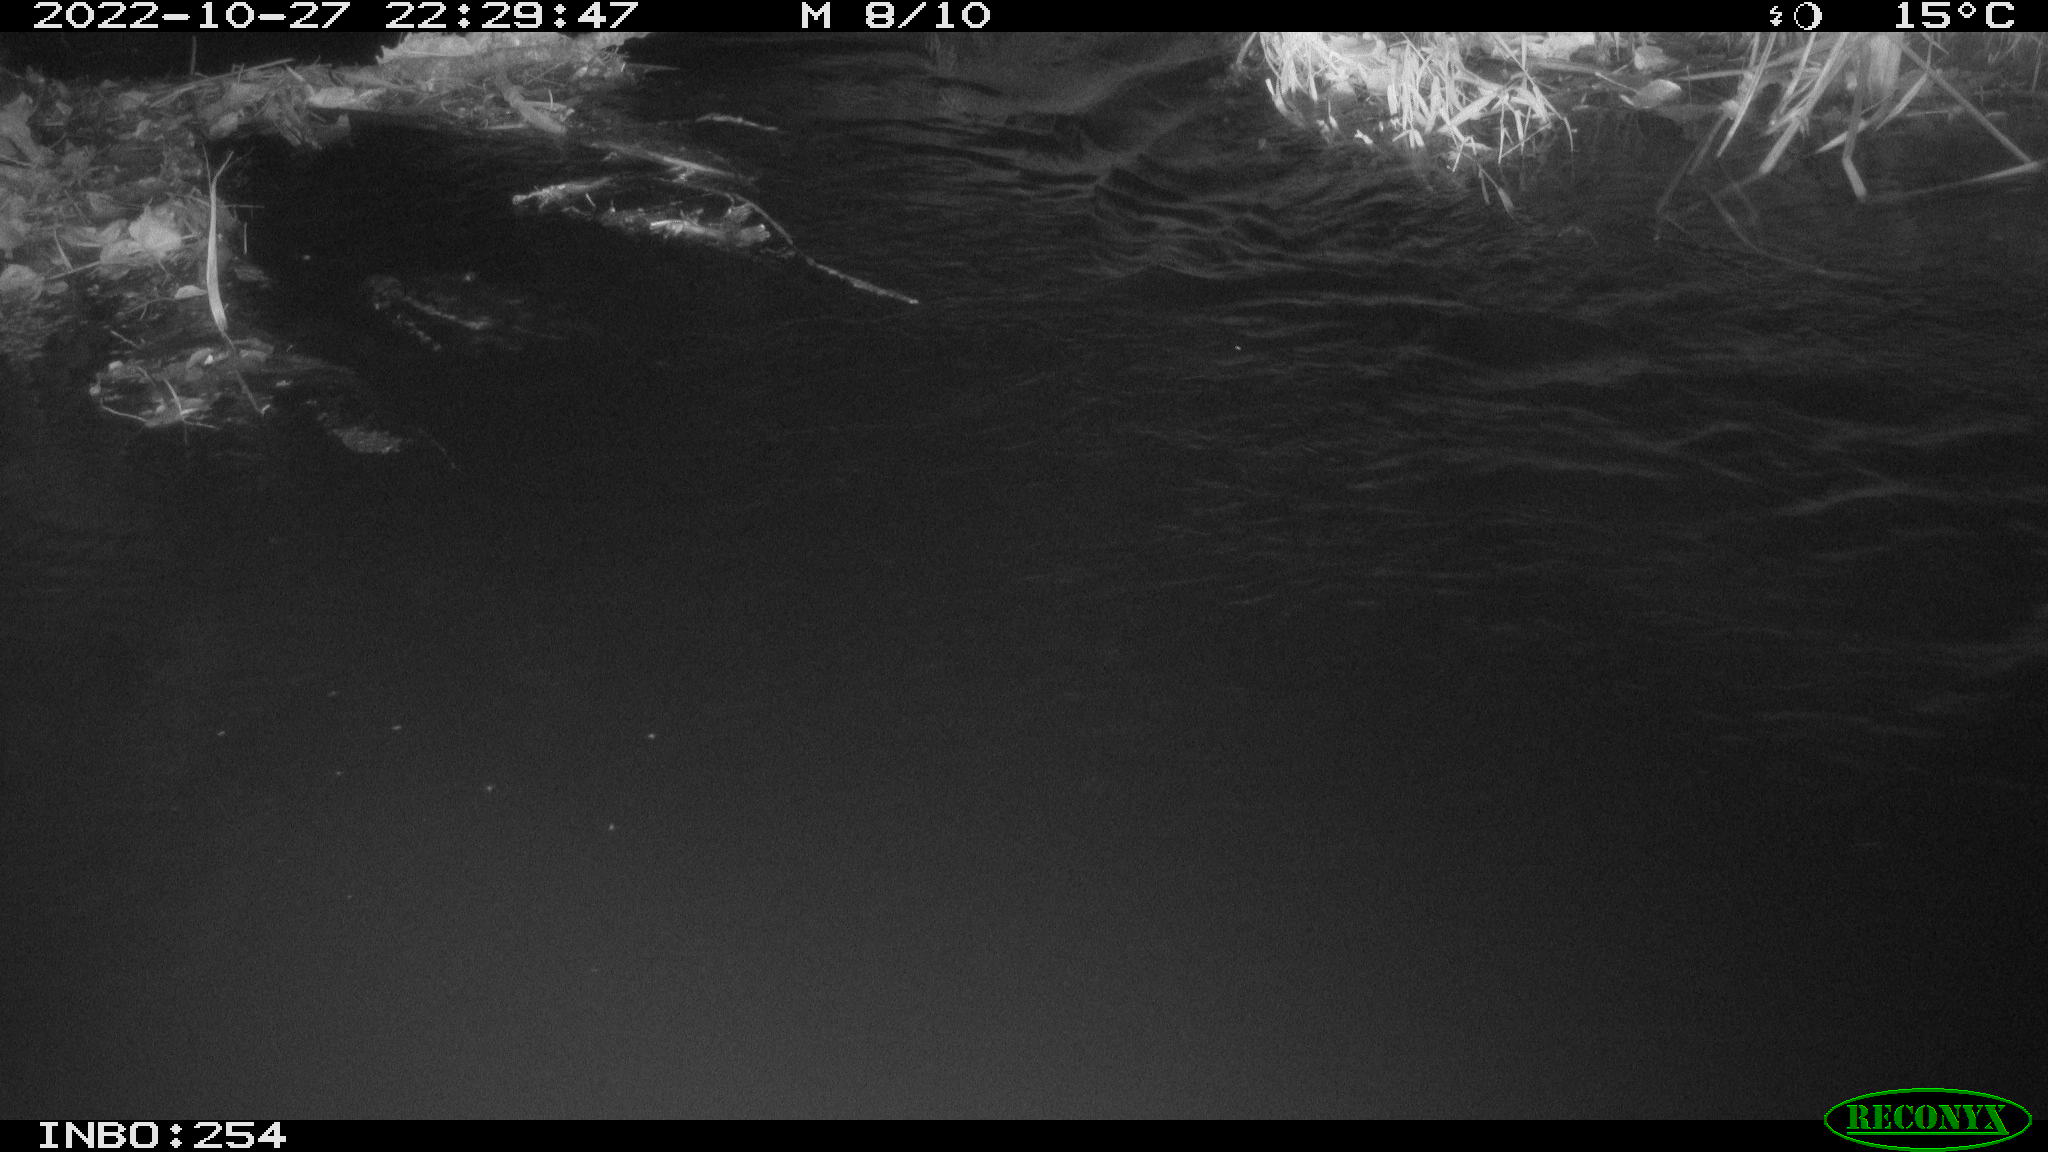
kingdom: Animalia
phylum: Chordata
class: Aves
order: Anseriformes
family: Anatidae
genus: Anas
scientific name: Anas
